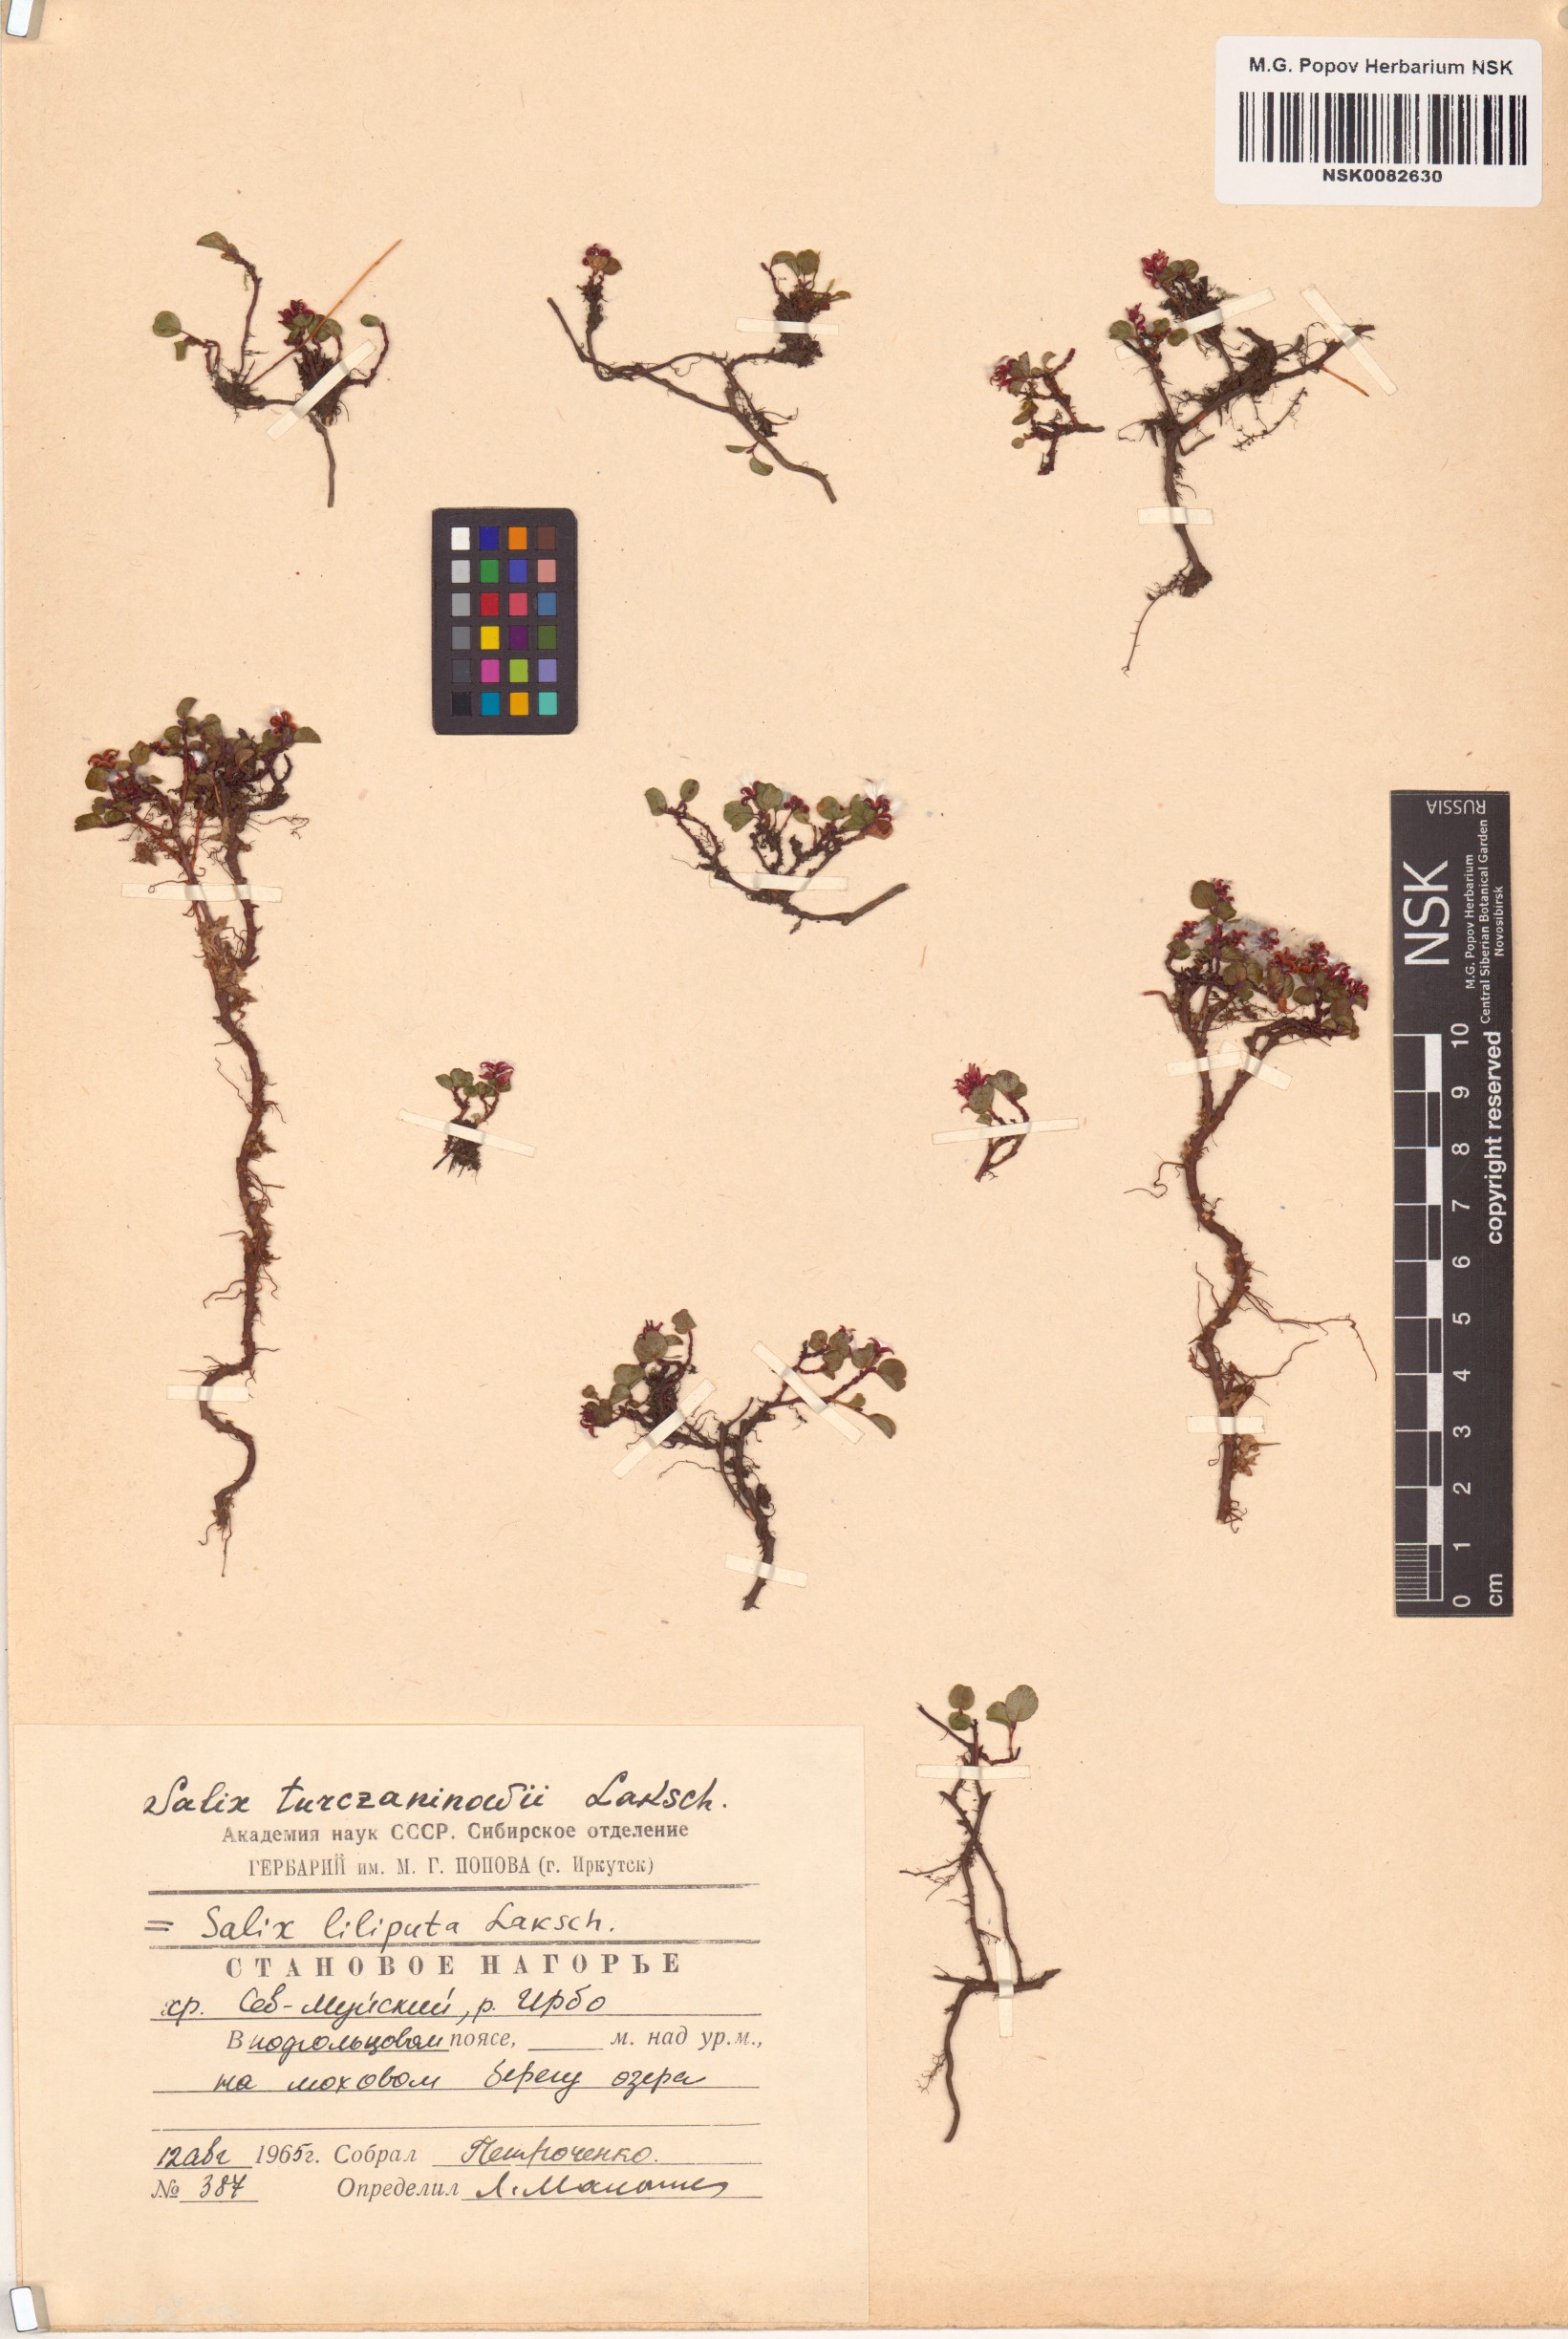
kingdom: Plantae
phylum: Tracheophyta
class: Magnoliopsida
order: Malpighiales
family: Salicaceae
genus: Salix
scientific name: Salix turczaninowii
